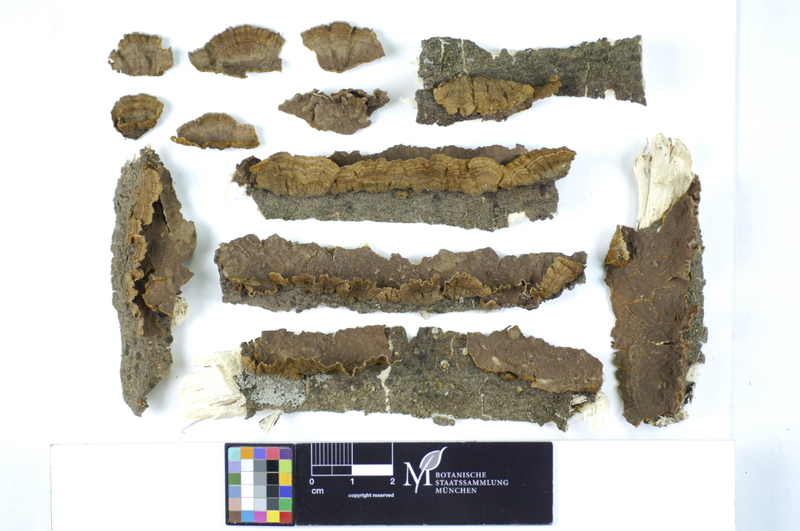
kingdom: Plantae
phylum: Tracheophyta
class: Magnoliopsida
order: Malpighiales
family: Salicaceae
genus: Salix
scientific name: Salix aurita
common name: Eared willow
